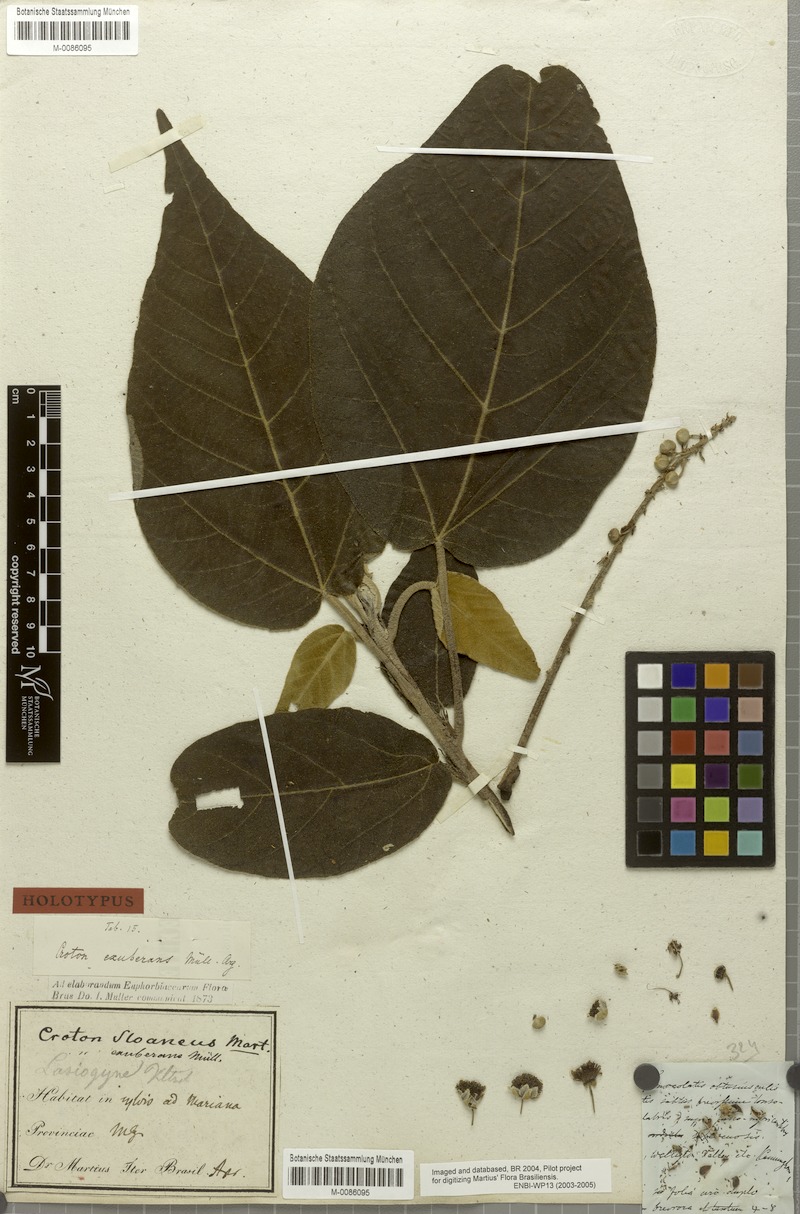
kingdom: Plantae
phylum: Tracheophyta
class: Magnoliopsida
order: Malpighiales
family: Euphorbiaceae
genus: Croton
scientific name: Croton exuberans
